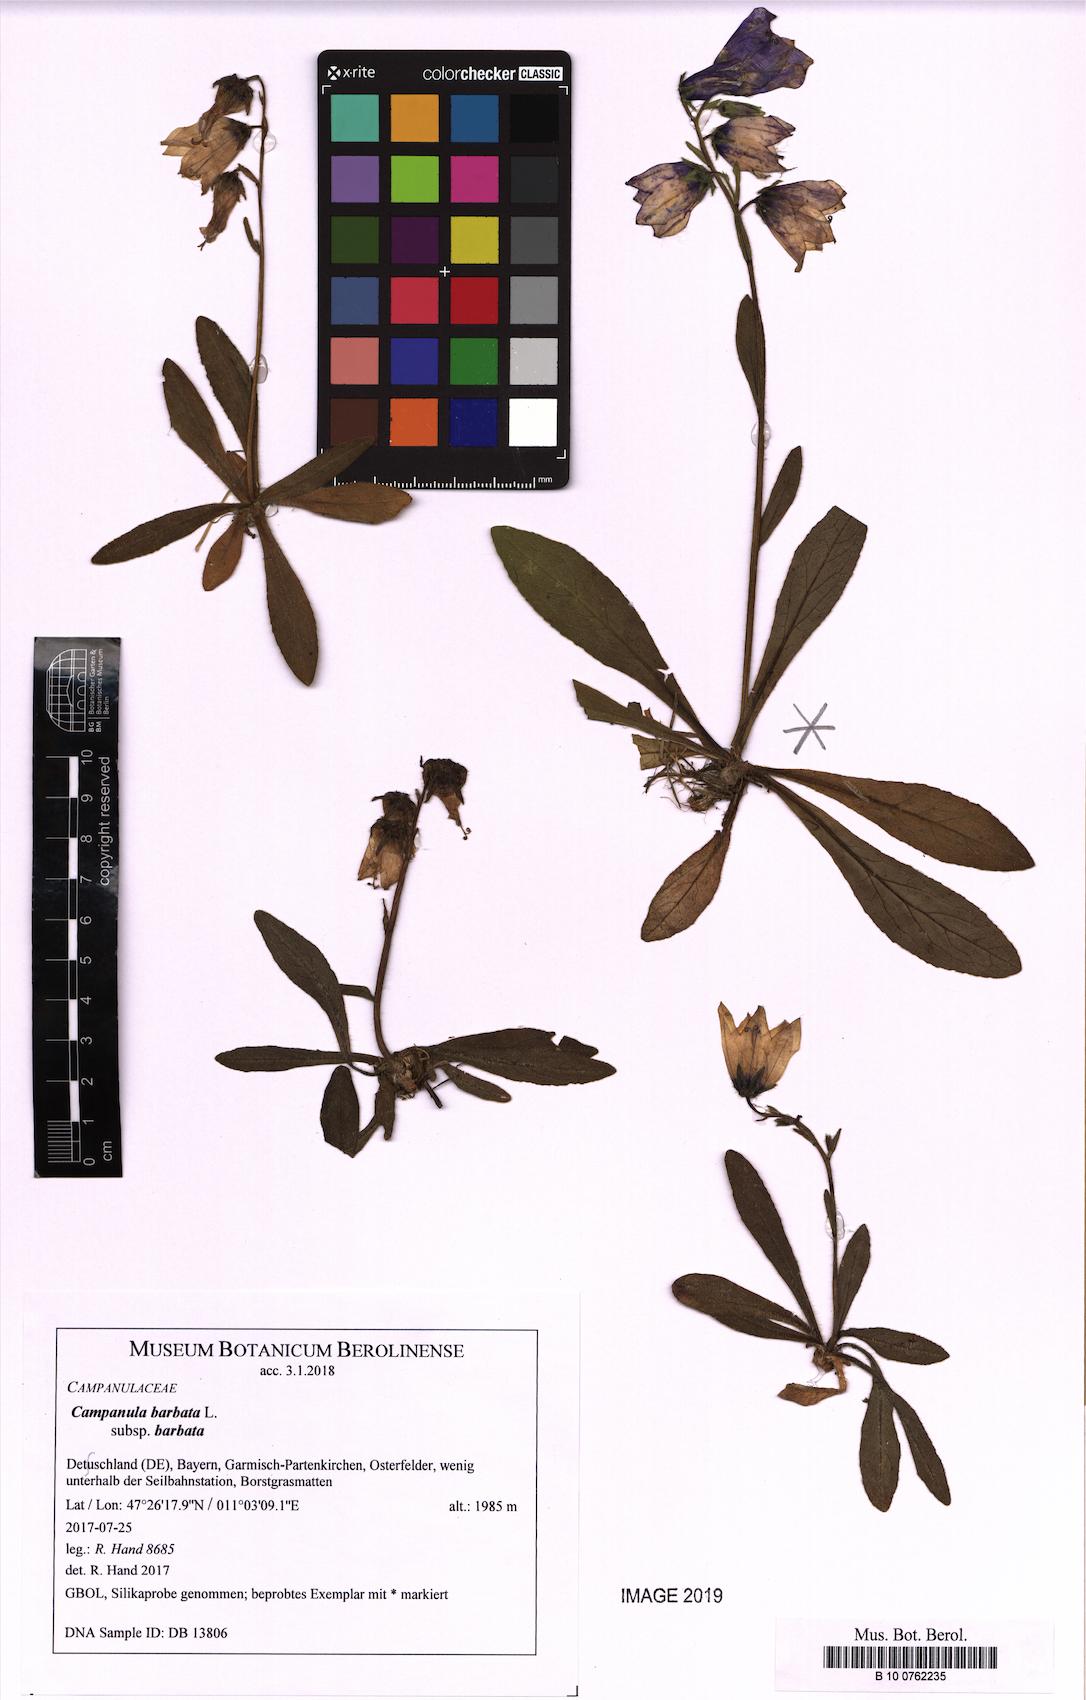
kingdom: Plantae
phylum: Tracheophyta
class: Magnoliopsida
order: Asterales
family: Campanulaceae
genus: Campanula
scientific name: Campanula barbata
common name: Bearded bellflower
